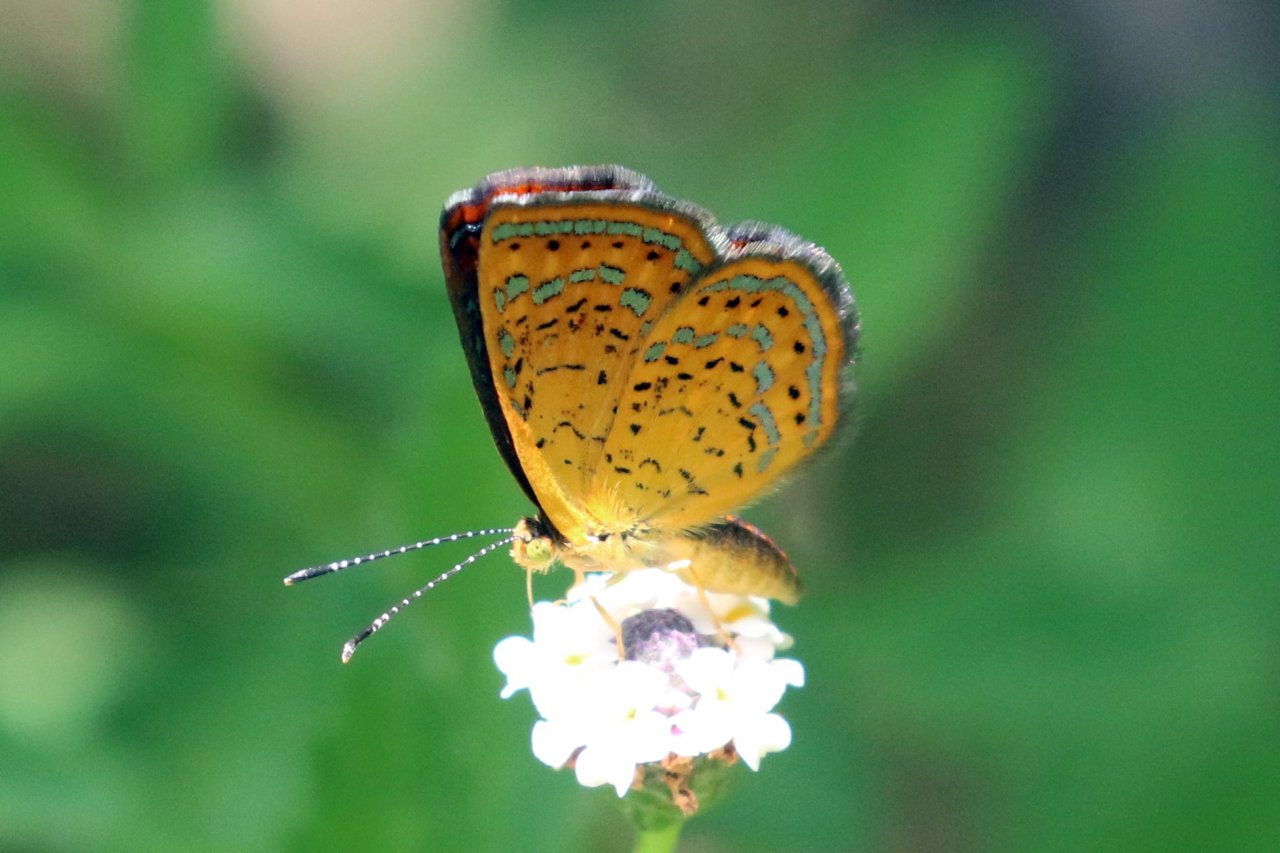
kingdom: Animalia
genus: Calephelis
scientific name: Calephelis perditalis
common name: Rounded Metalmark
